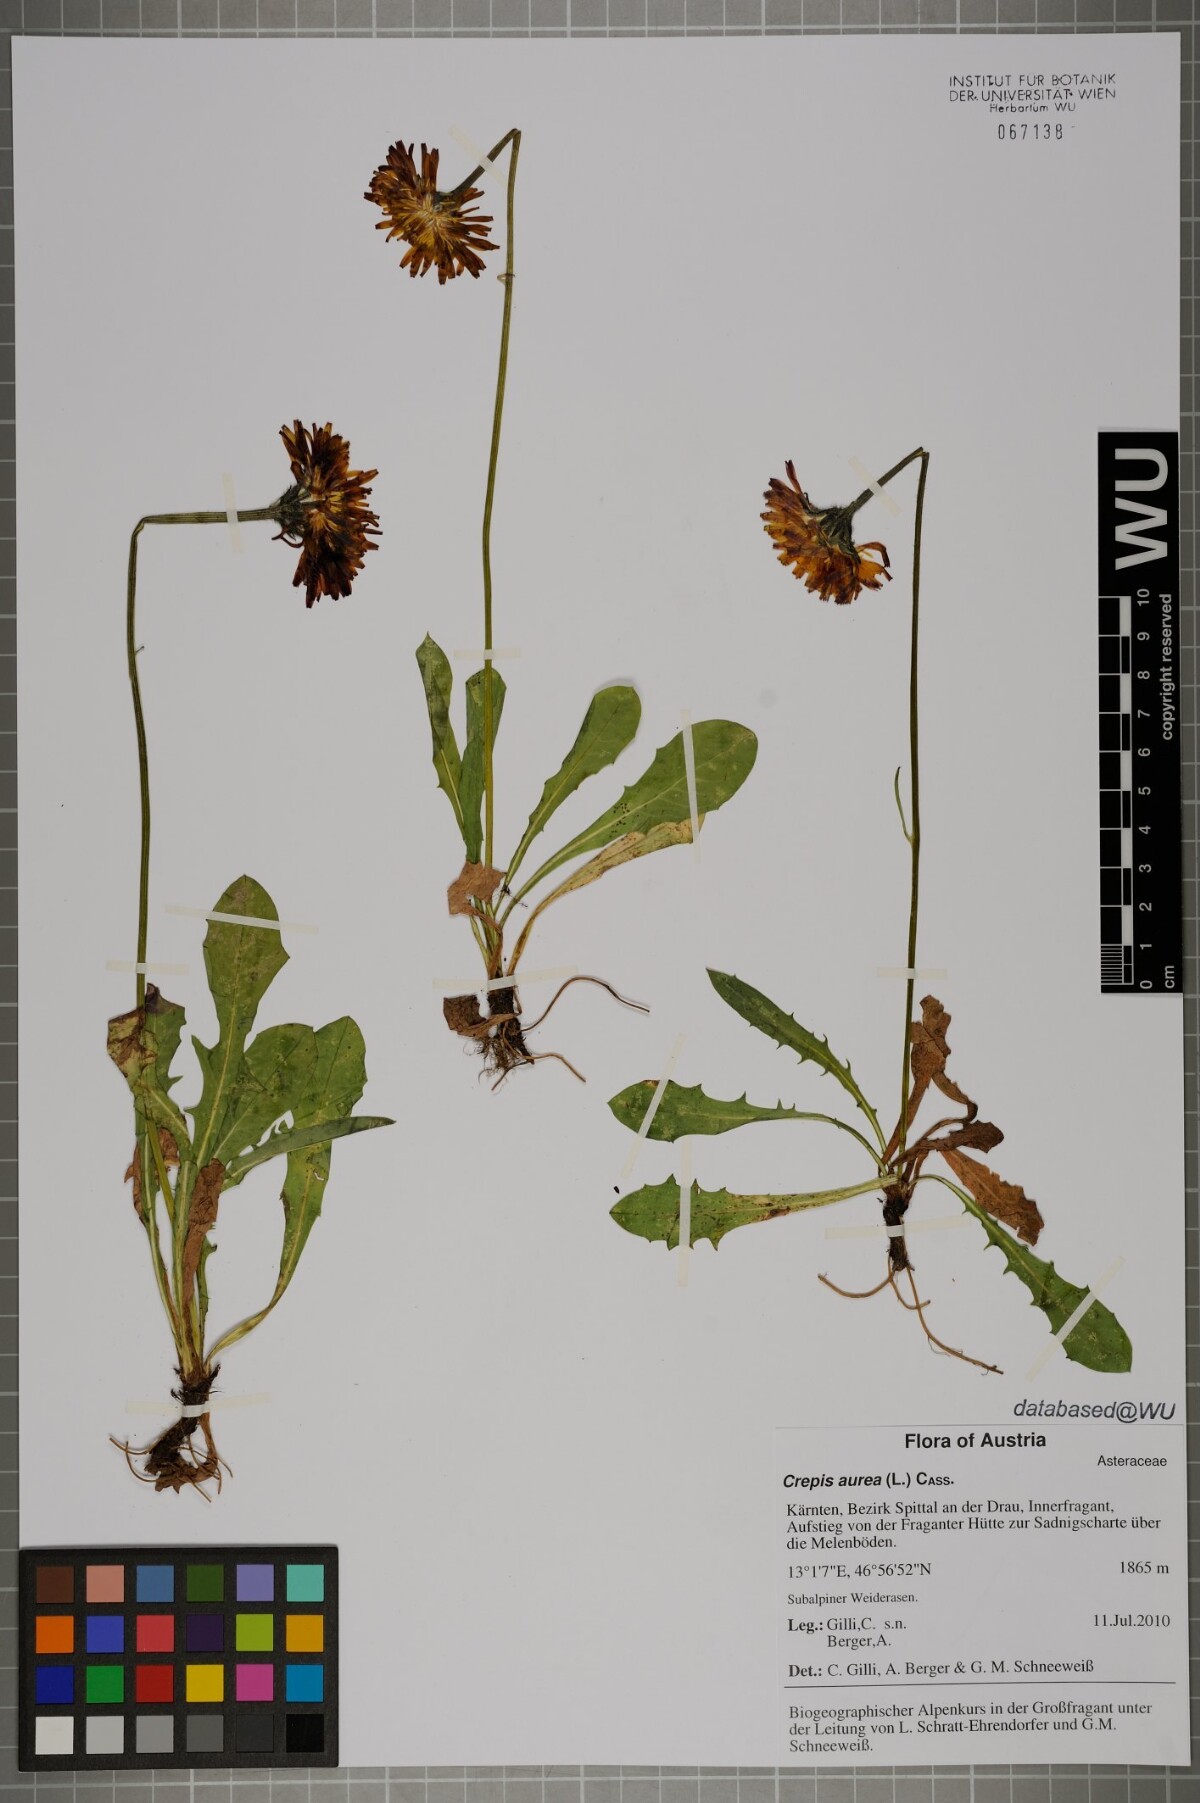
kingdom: Plantae
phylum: Tracheophyta
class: Magnoliopsida
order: Asterales
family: Asteraceae
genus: Crepis
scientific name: Crepis aurea
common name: Golden hawk's-beard
